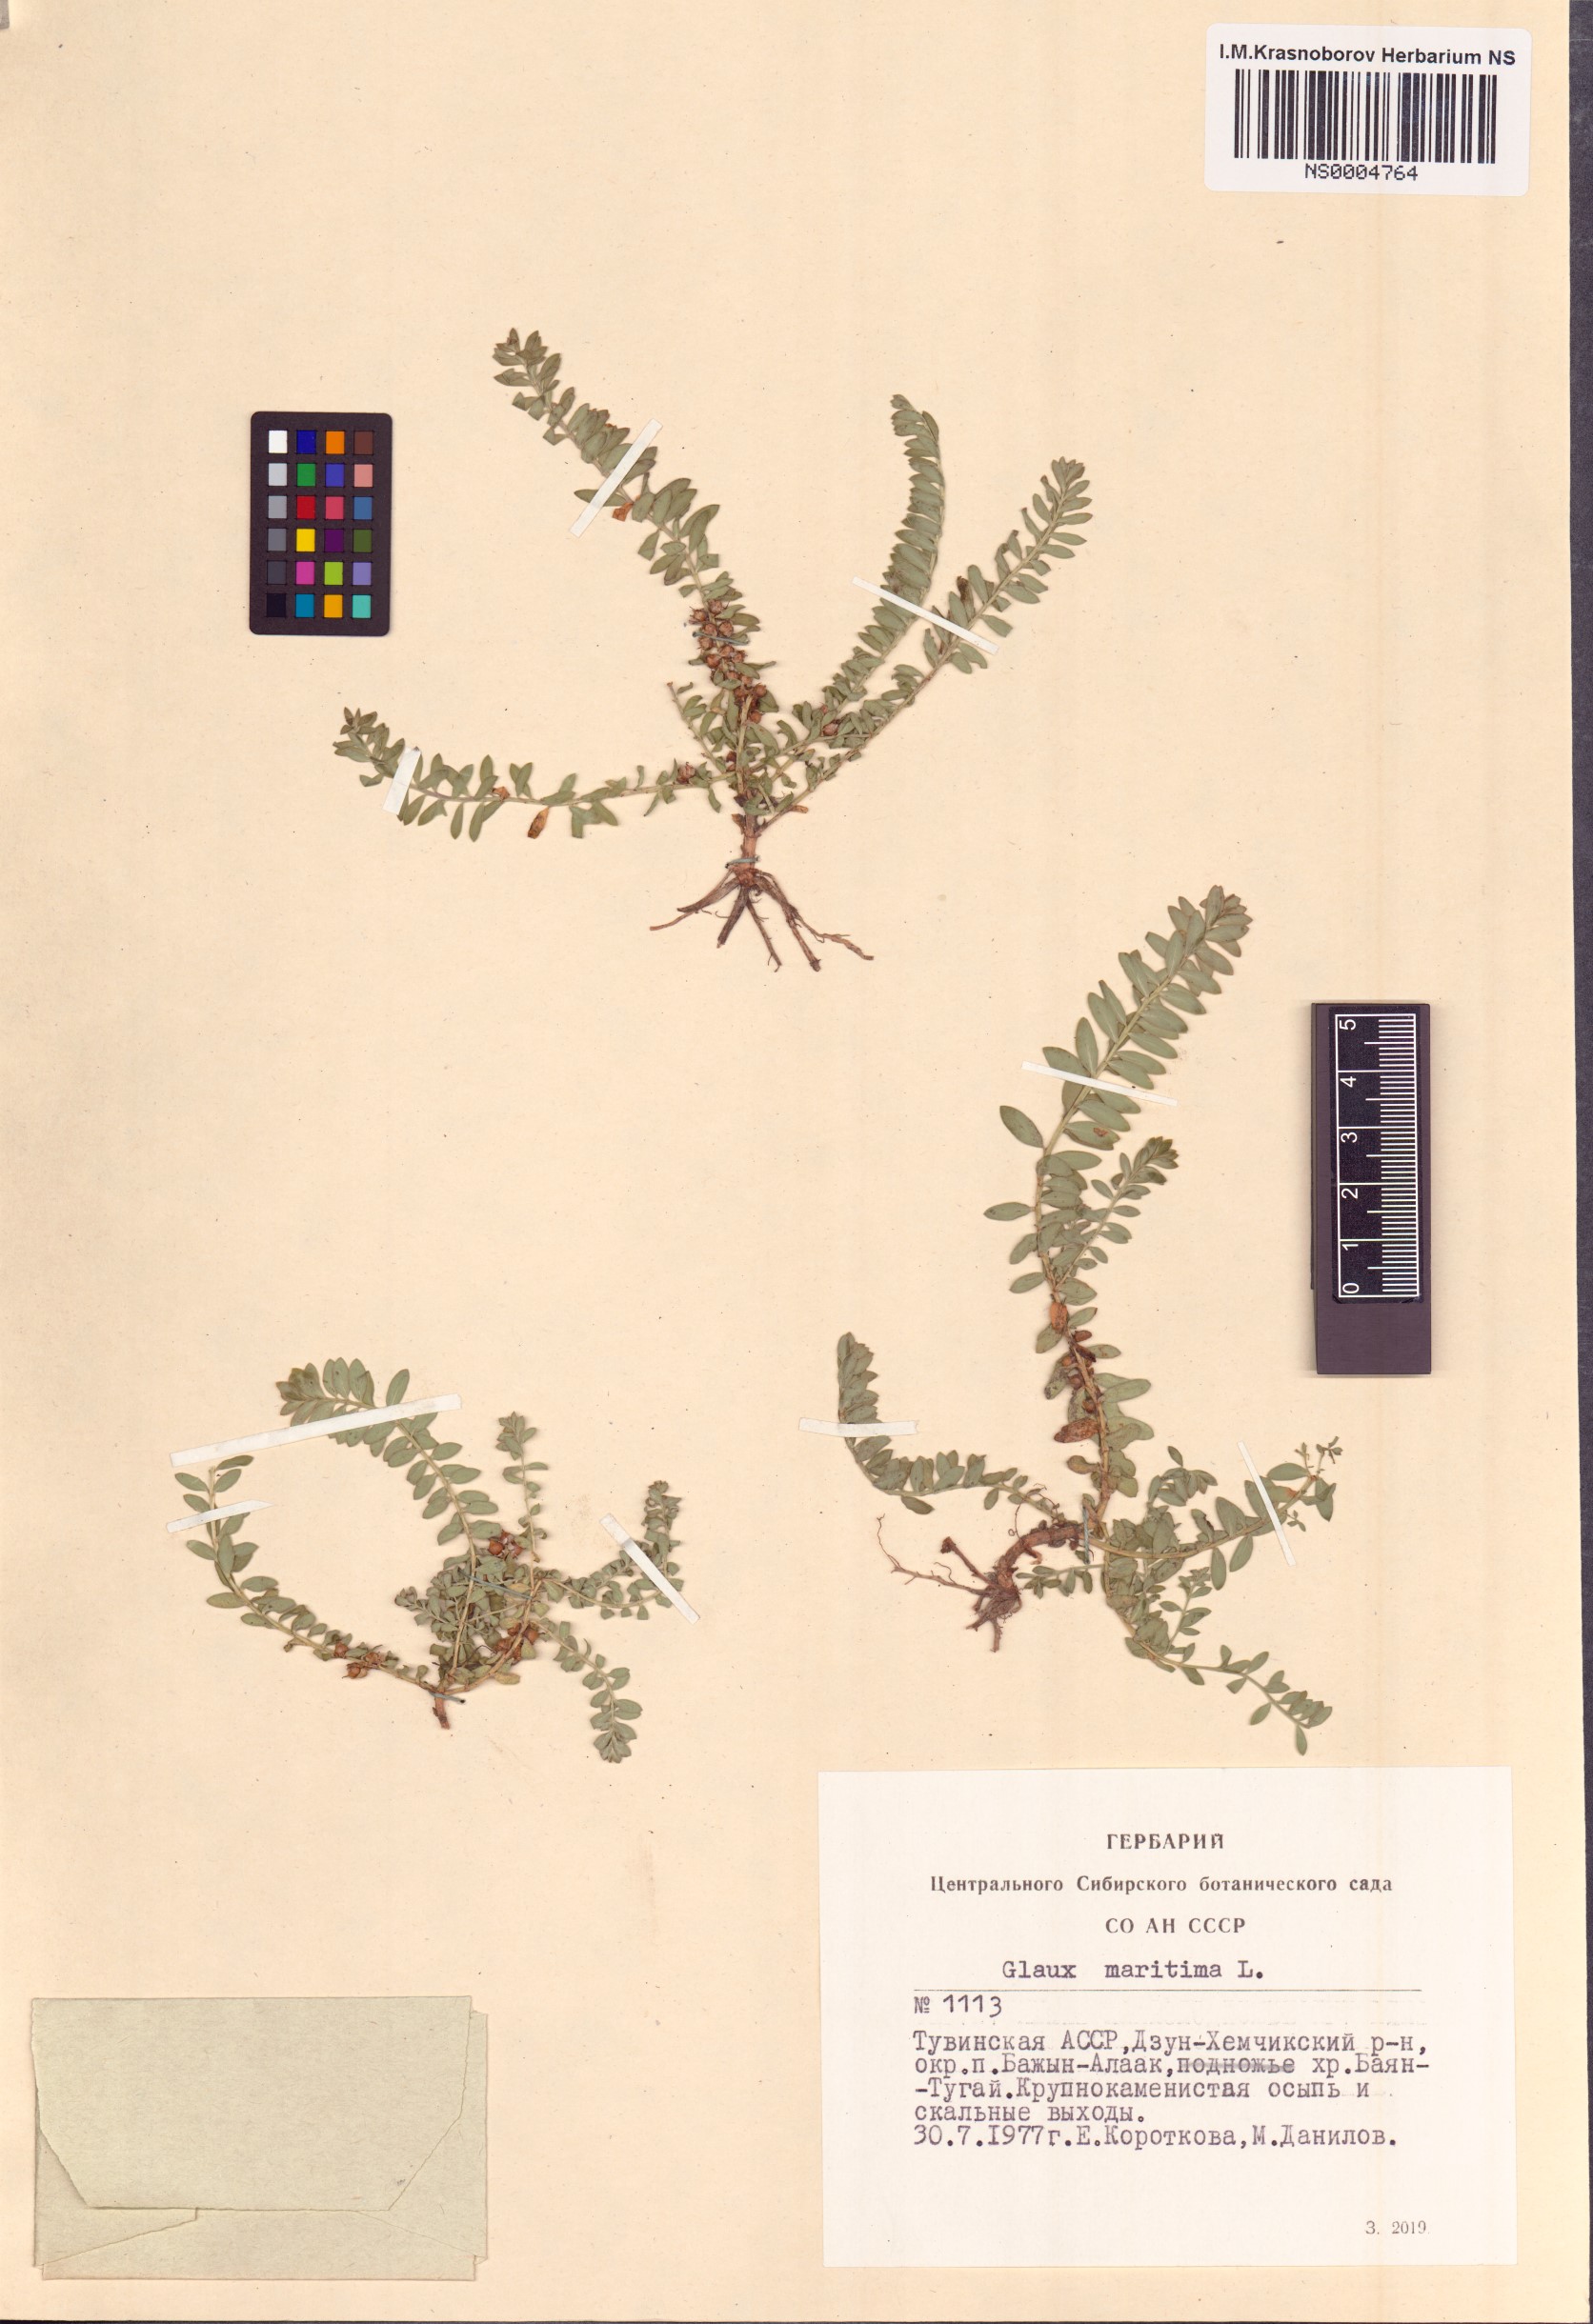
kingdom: Plantae
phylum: Tracheophyta
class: Magnoliopsida
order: Ericales
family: Primulaceae
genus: Lysimachia
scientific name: Lysimachia maritima
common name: Sea milkwort
